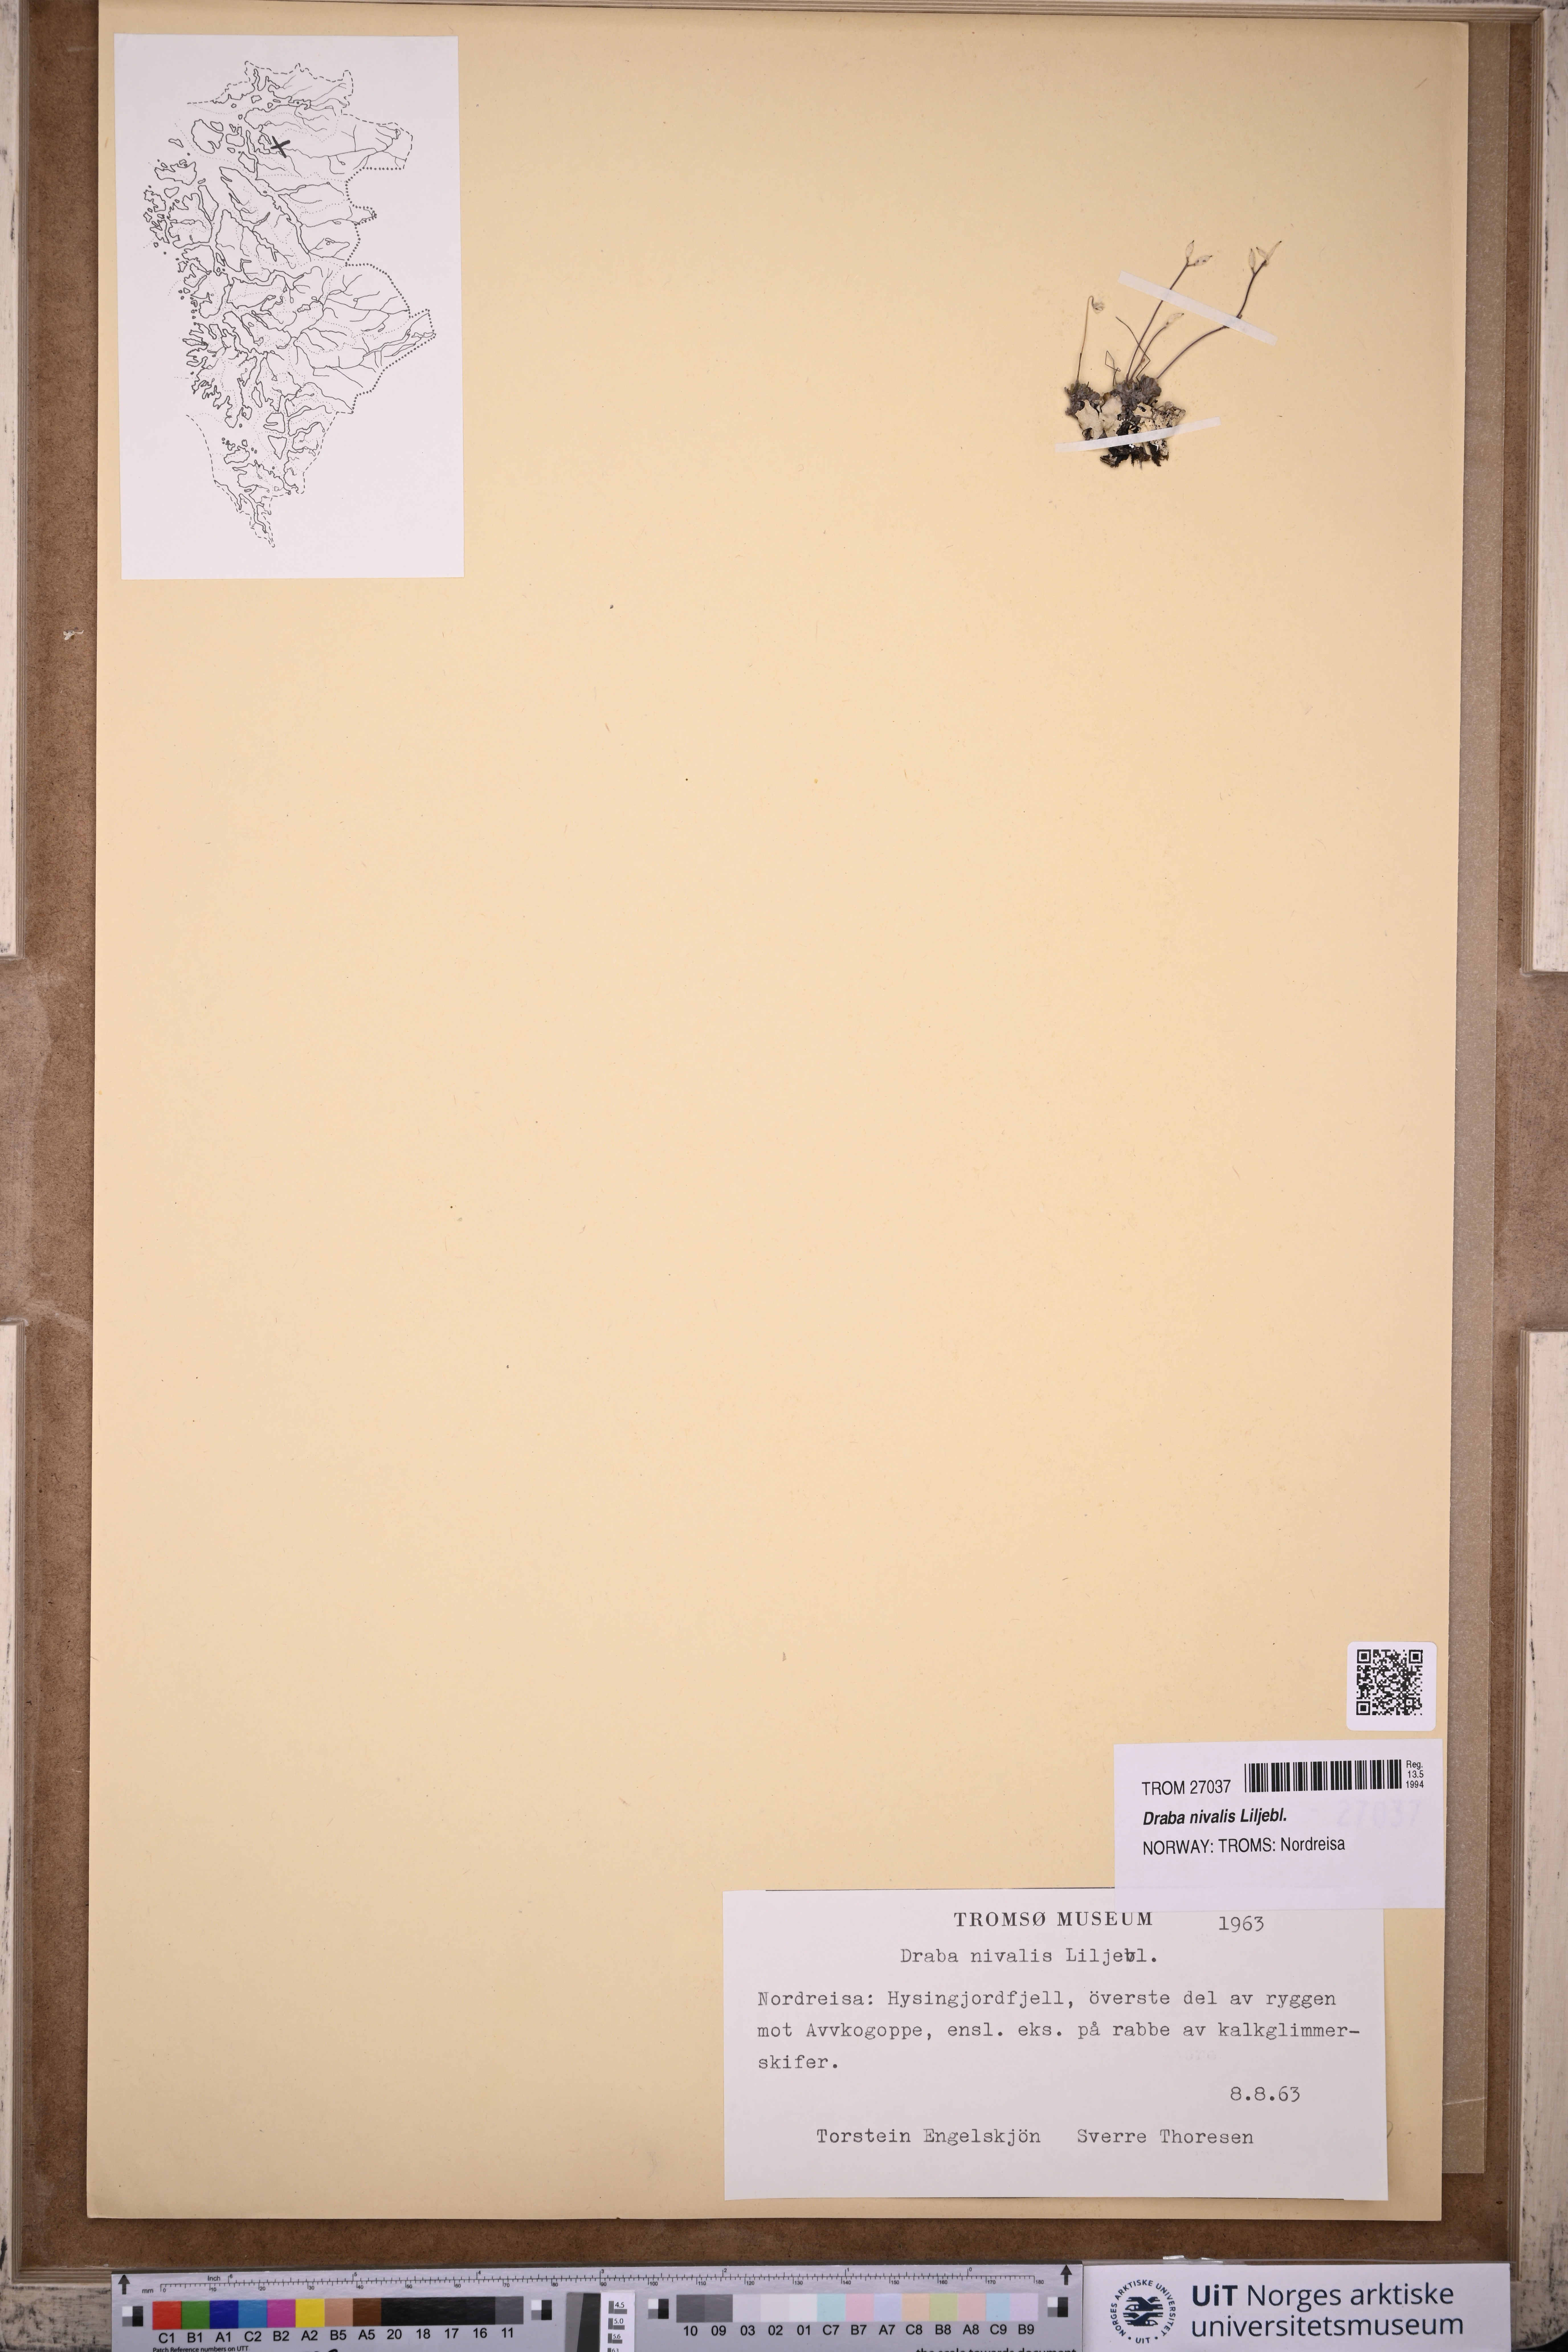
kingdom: Plantae
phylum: Tracheophyta
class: Magnoliopsida
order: Brassicales
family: Brassicaceae
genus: Draba
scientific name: Draba nivalis
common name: Snow draba
